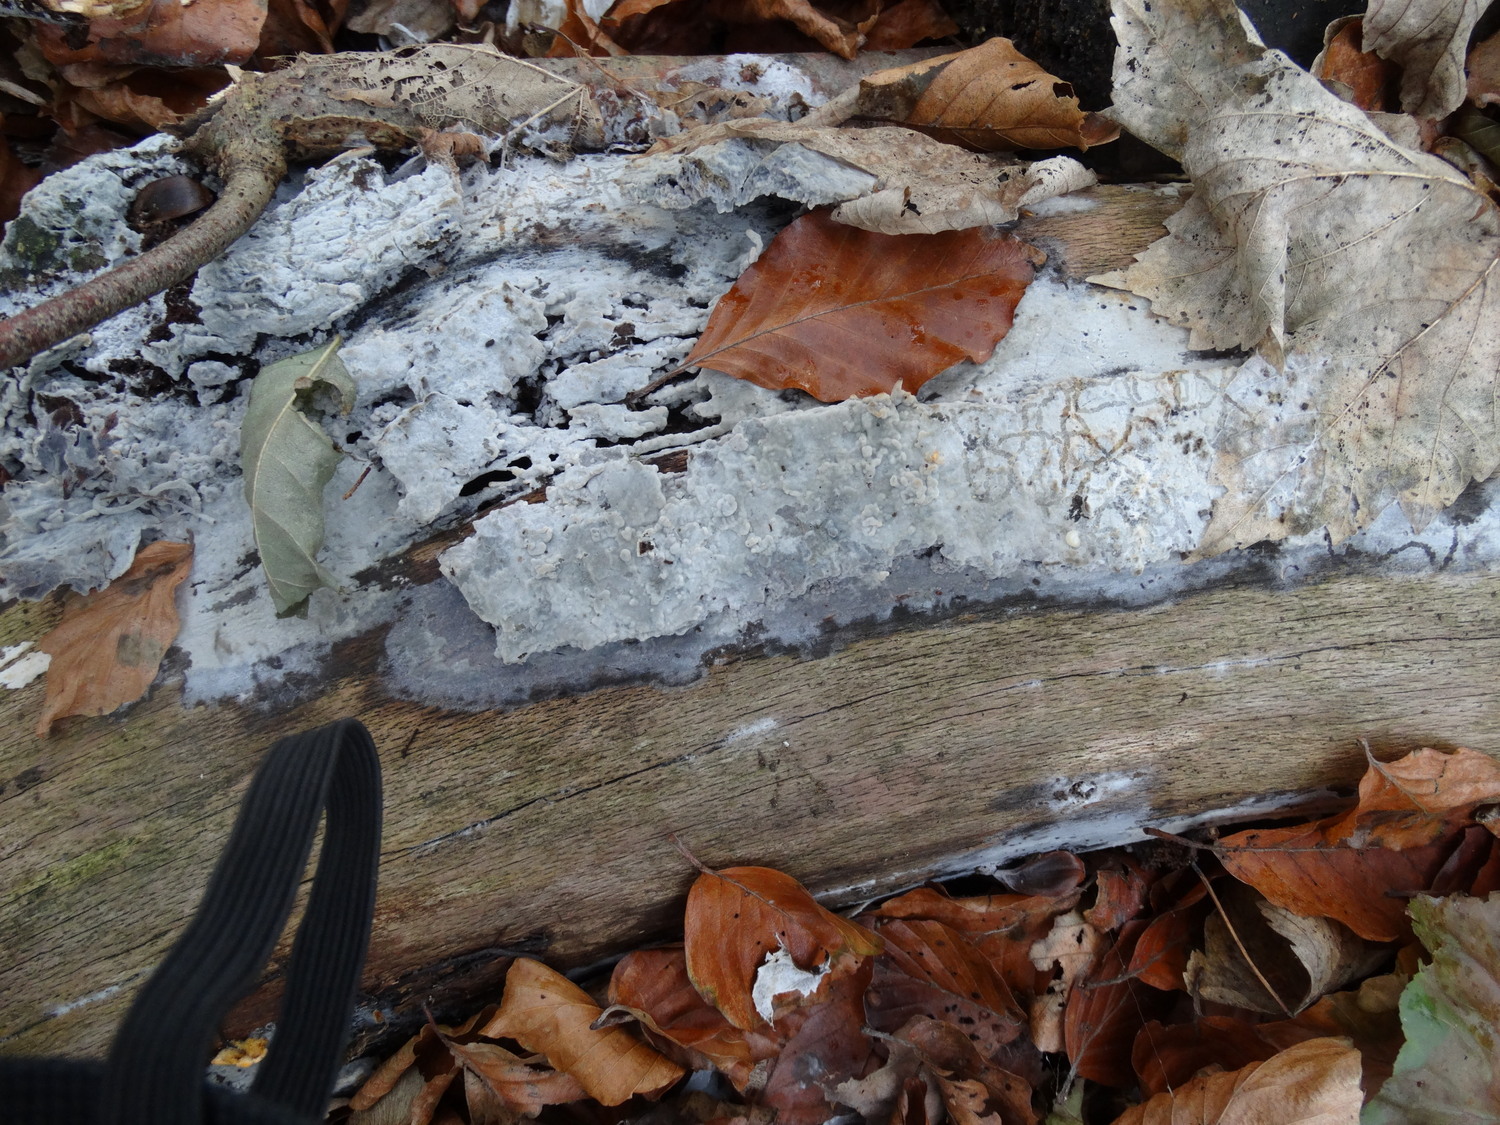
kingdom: Fungi
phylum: Basidiomycota
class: Agaricomycetes
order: Agaricales
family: Radulomycetaceae
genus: Radulomyces
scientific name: Radulomyces confluens
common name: glat naftalinskind
